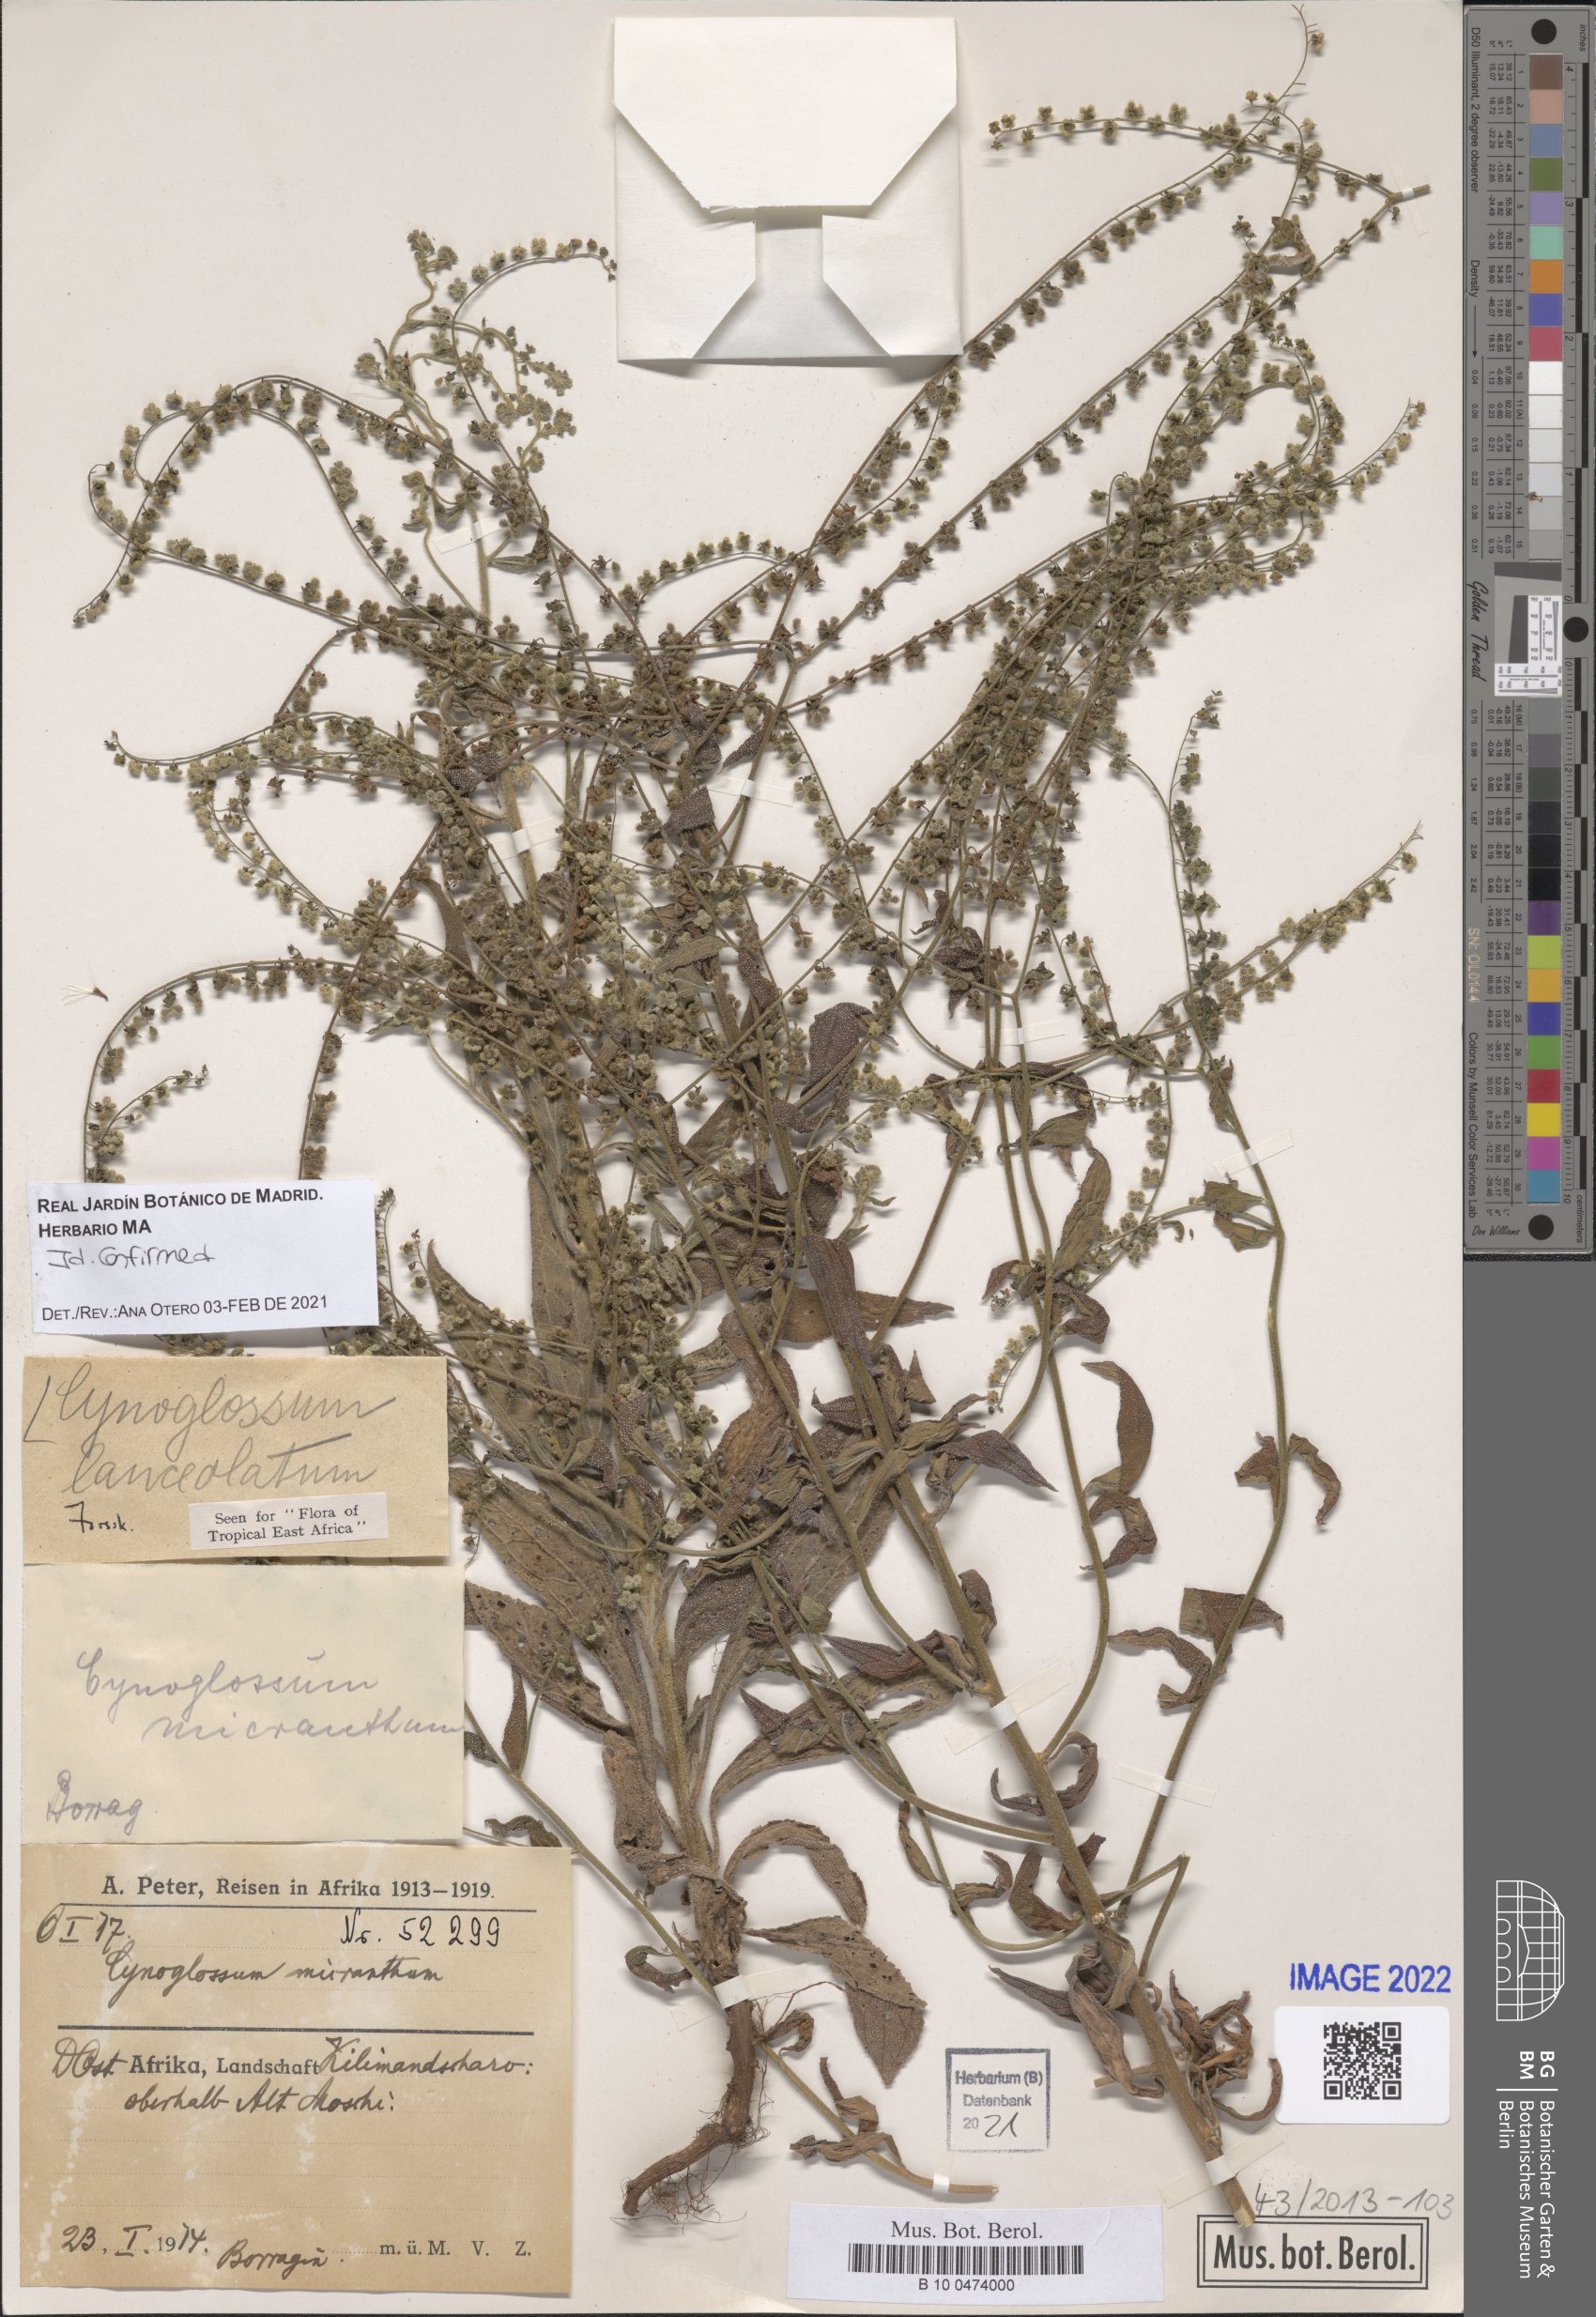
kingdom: Plantae
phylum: Tracheophyta
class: Magnoliopsida
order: Boraginales
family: Boraginaceae
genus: Paracynoglossum
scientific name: Paracynoglossum lanceolatum
